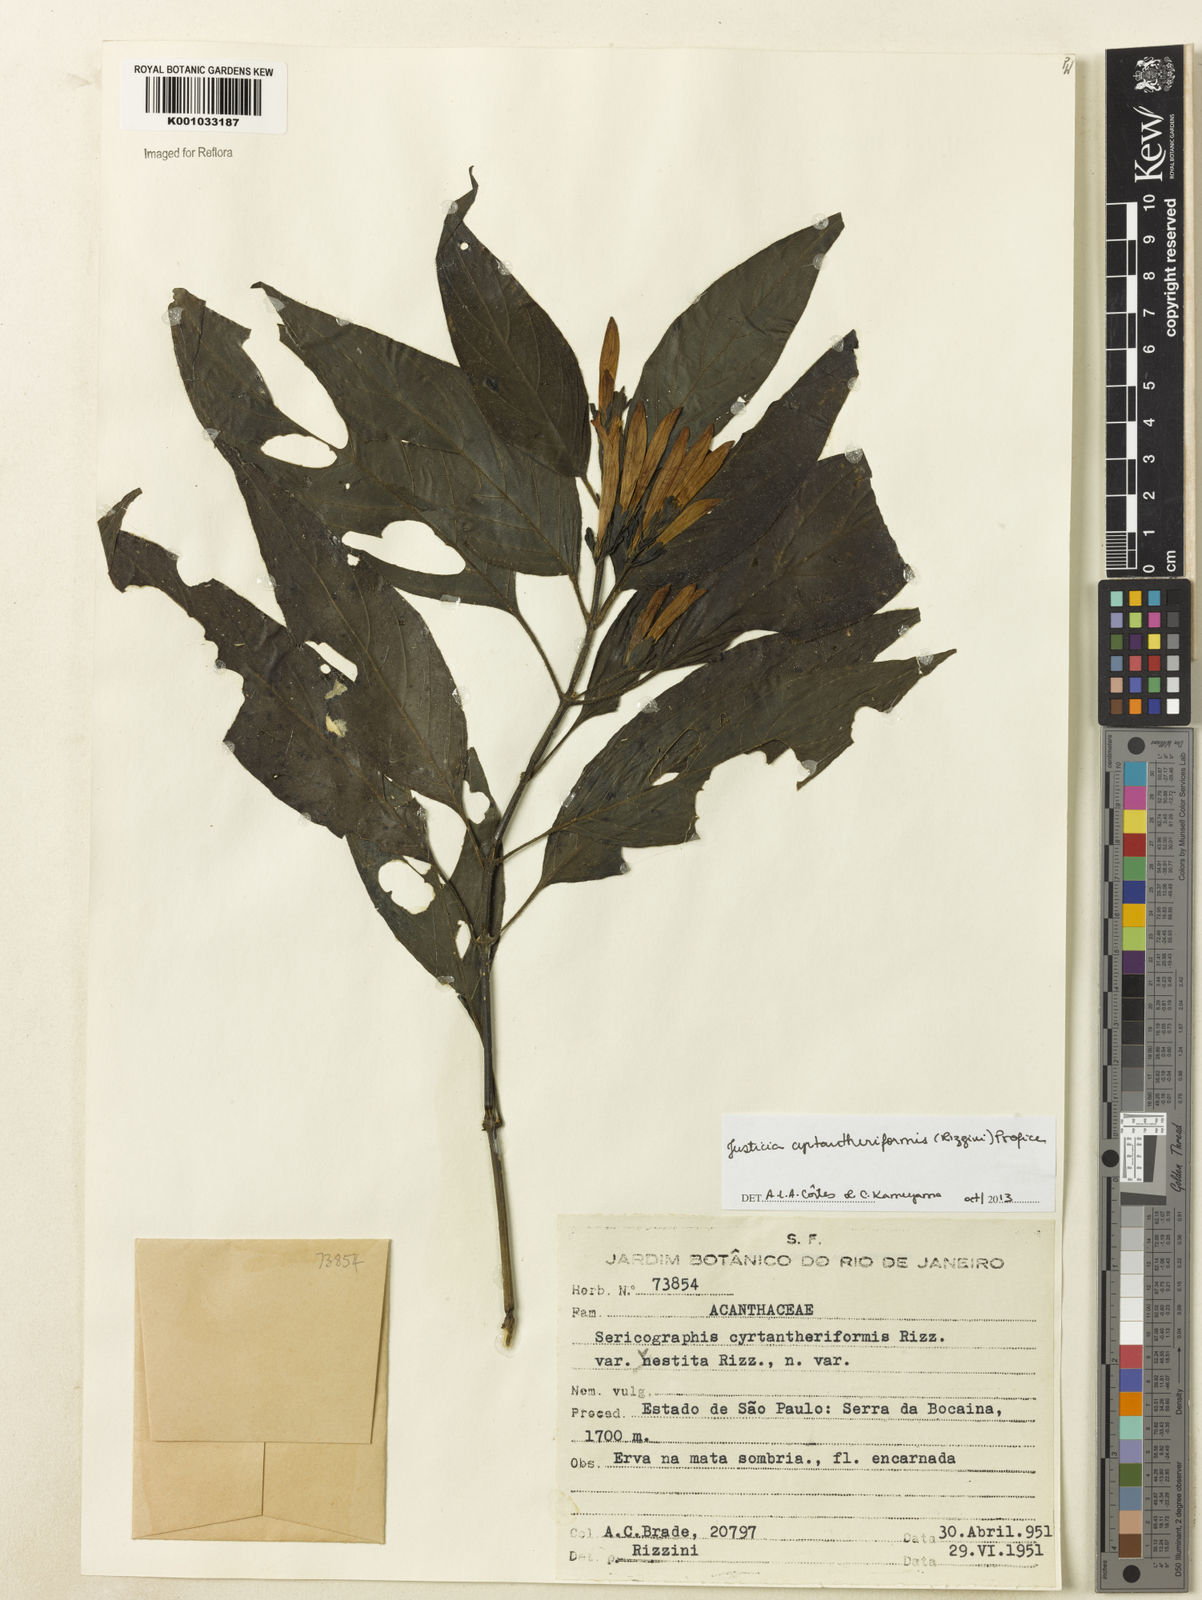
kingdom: Plantae
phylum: Tracheophyta
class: Magnoliopsida
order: Lamiales
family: Acanthaceae
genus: Justicia
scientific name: Justicia cyrtantheriformis
